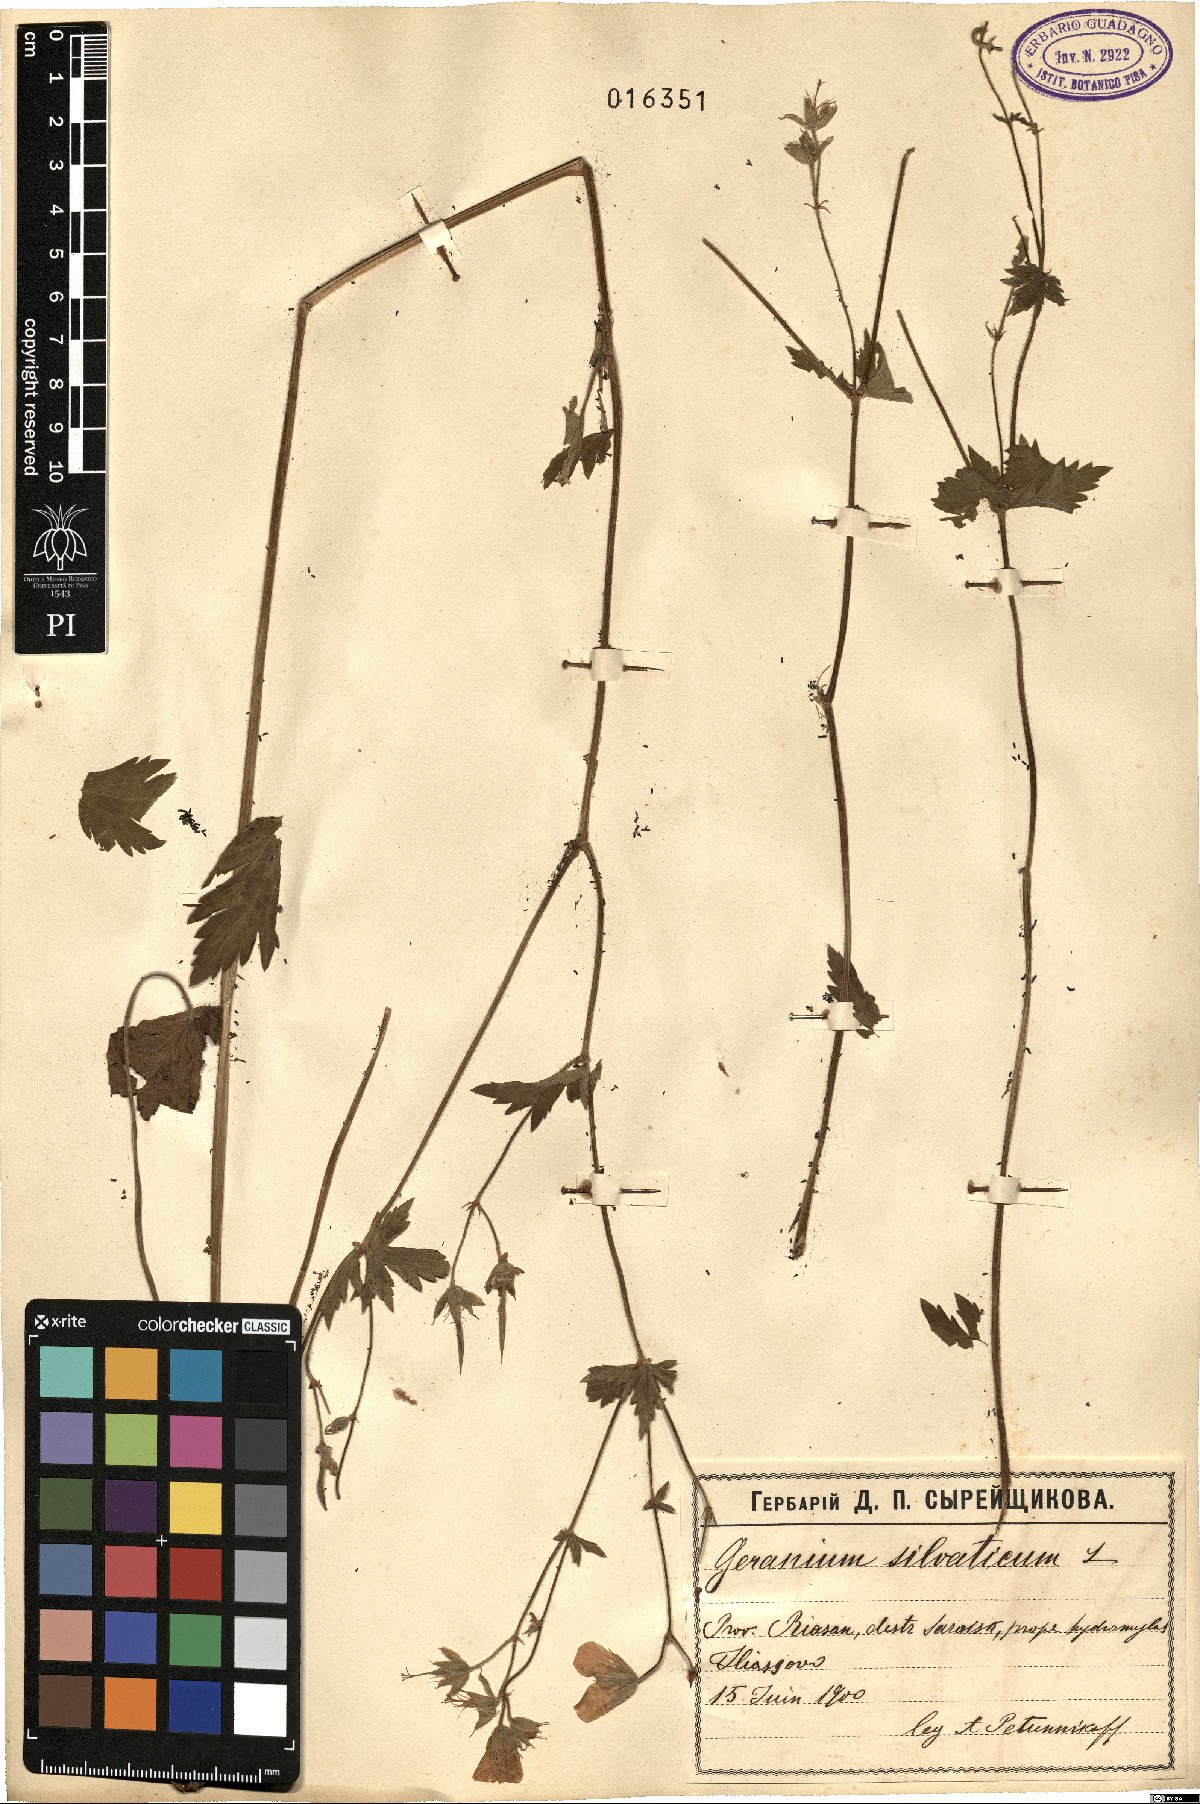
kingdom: Plantae
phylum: Tracheophyta
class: Magnoliopsida
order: Geraniales
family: Geraniaceae
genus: Geranium
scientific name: Geranium sylvaticum
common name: Wood crane's-bill
